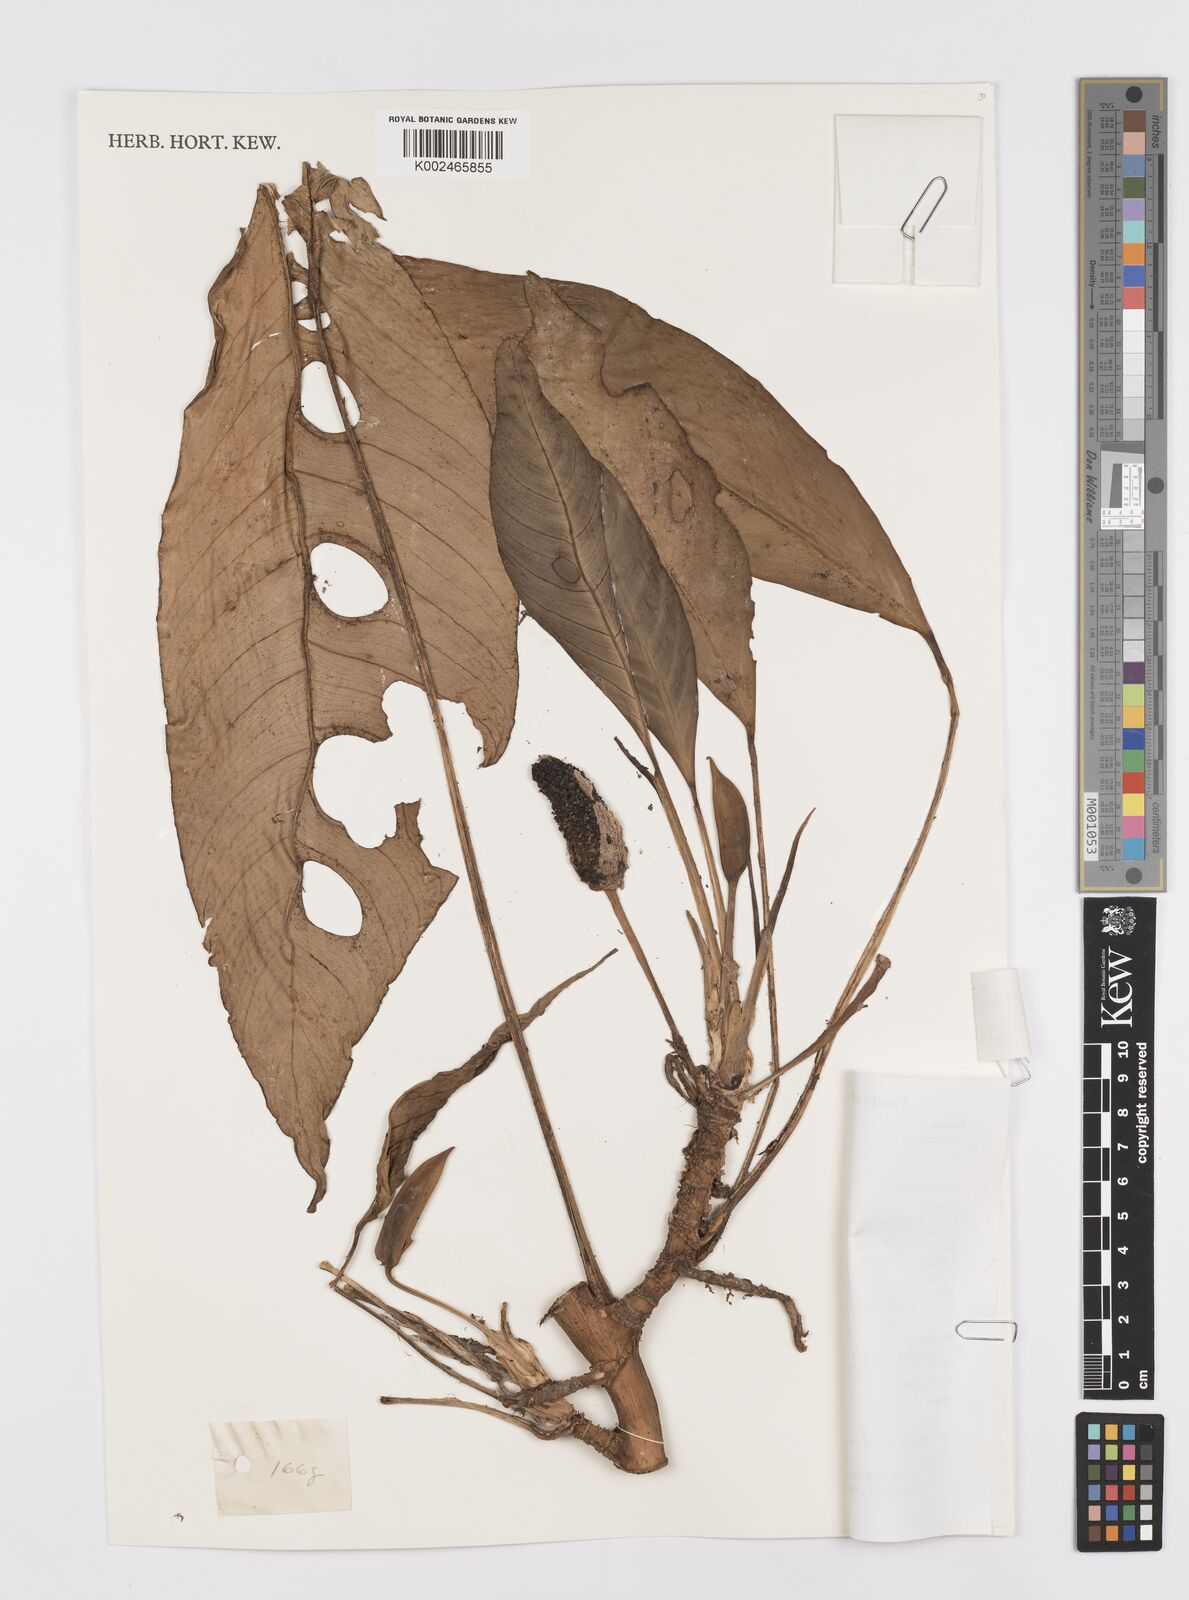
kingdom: Plantae
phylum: Tracheophyta
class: Liliopsida
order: Alismatales
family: Araceae
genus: Rhaphidophora
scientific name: Rhaphidophora megasperma
